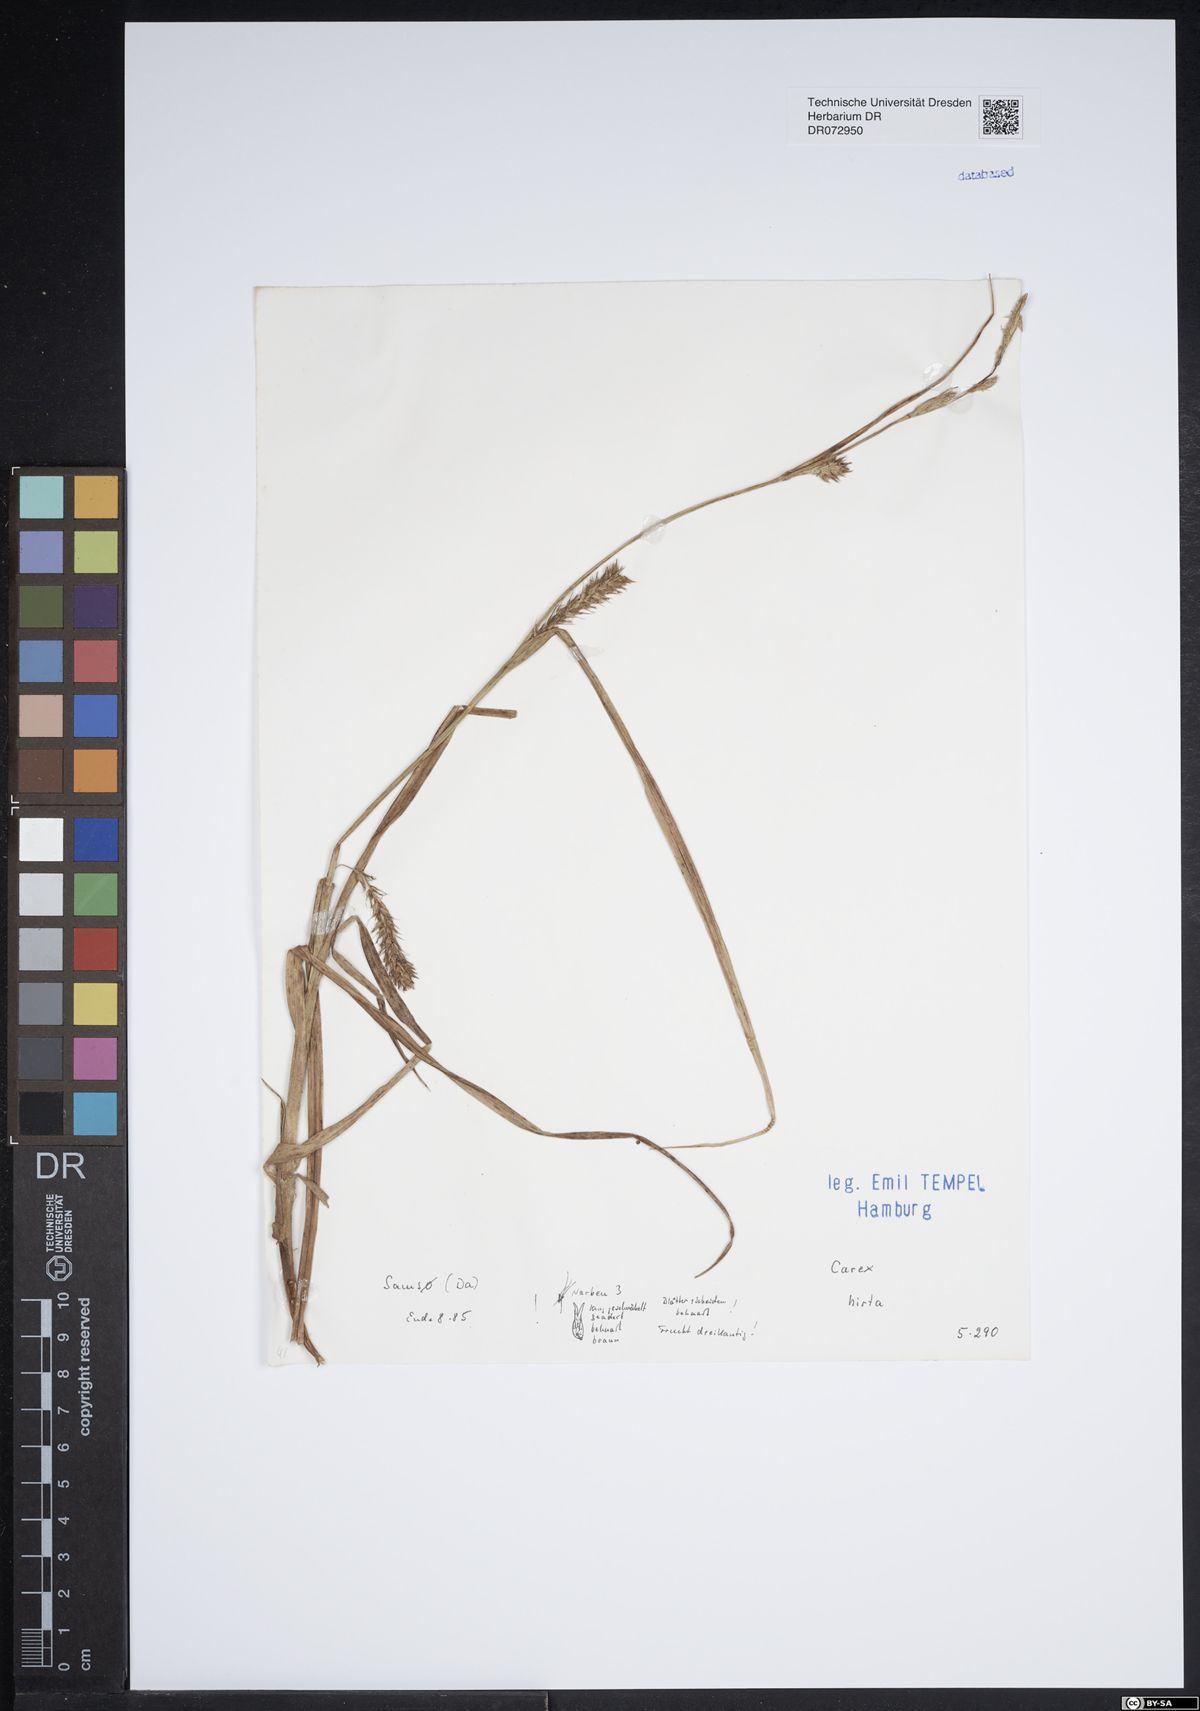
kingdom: Plantae
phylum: Tracheophyta
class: Liliopsida
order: Poales
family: Cyperaceae
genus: Carex
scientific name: Carex hirta
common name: Hairy sedge
